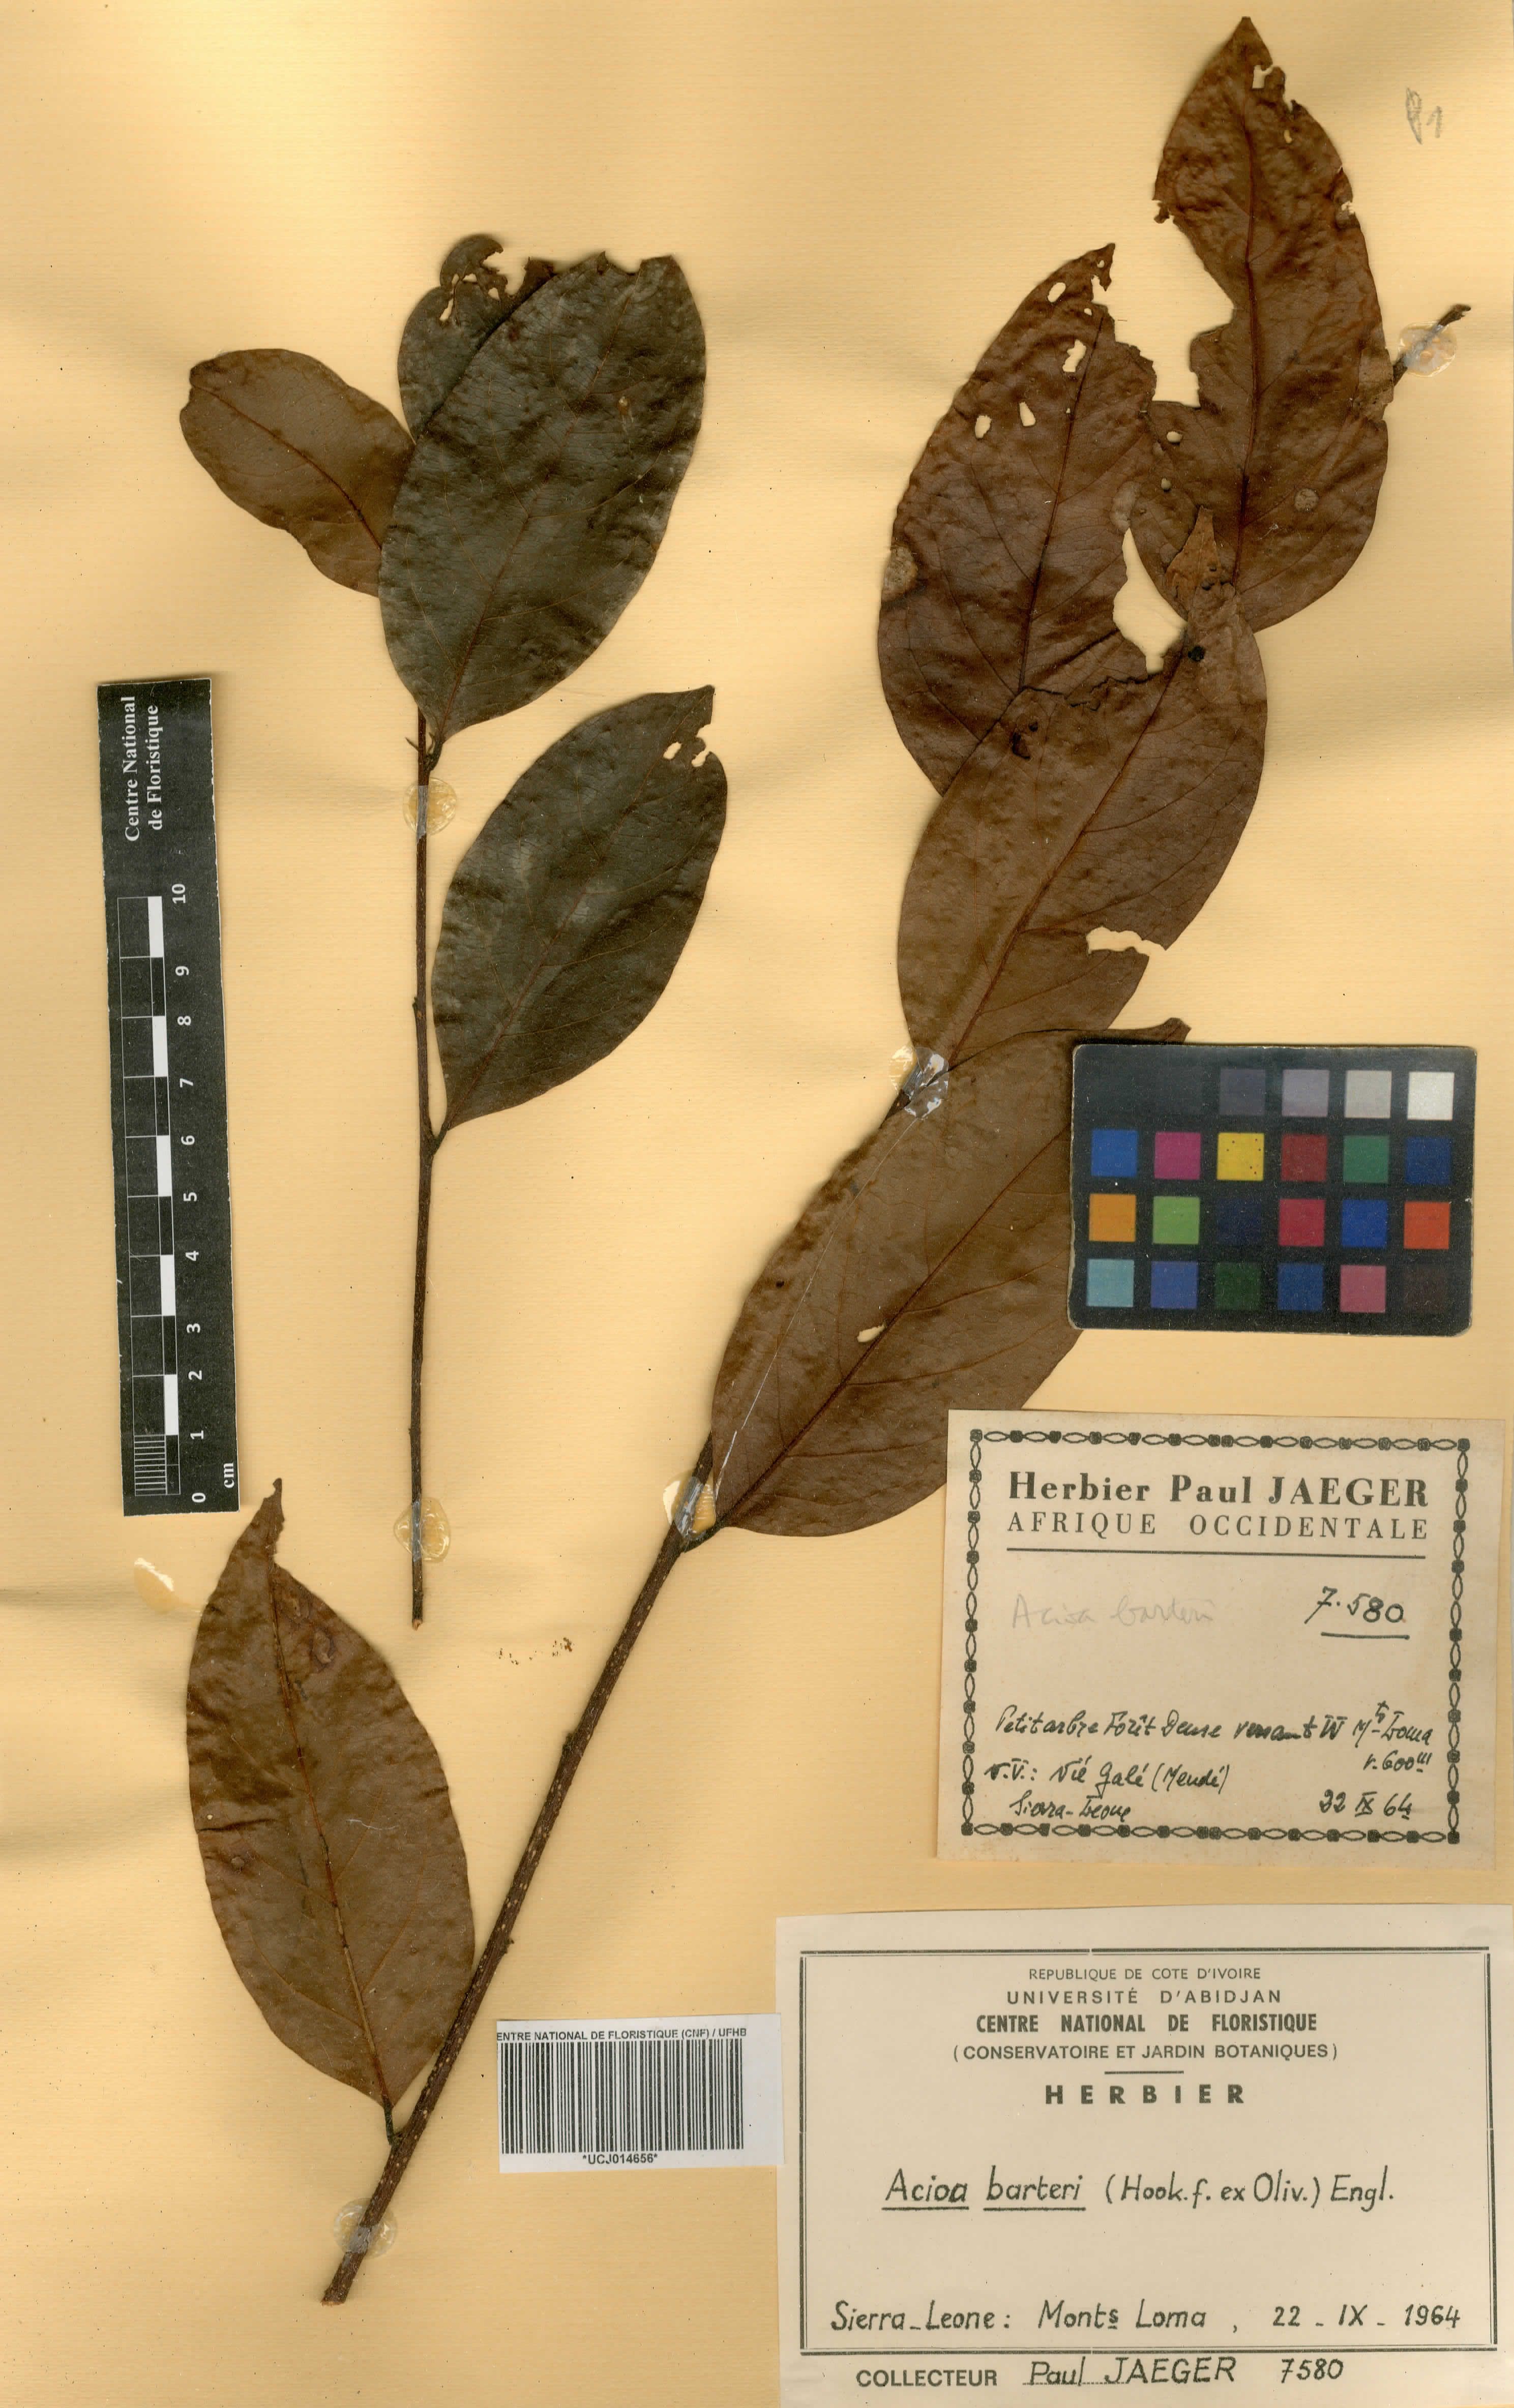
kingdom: Plantae
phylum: Tracheophyta
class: Magnoliopsida
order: Malpighiales
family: Chrysobalanaceae
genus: Dactyladenia
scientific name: Dactyladenia barteri
